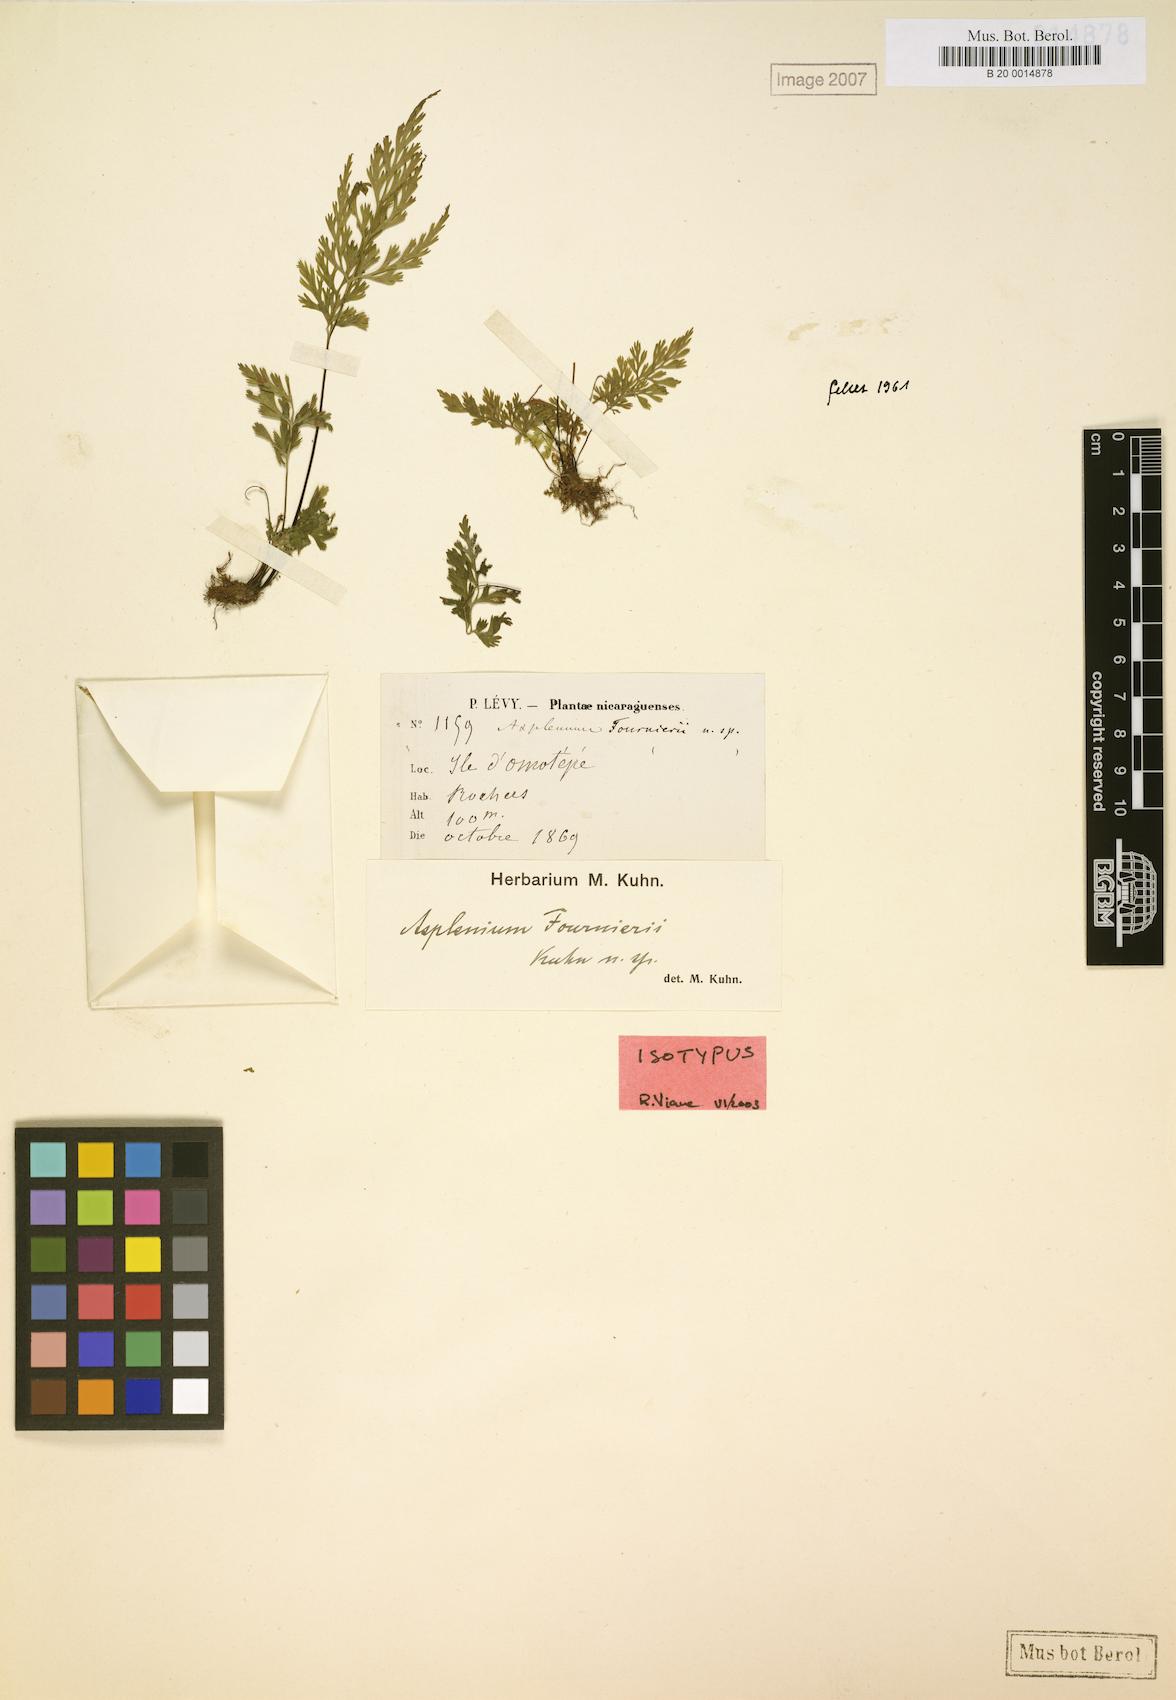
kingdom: Plantae
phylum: Tracheophyta
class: Polypodiopsida
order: Polypodiales
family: Aspleniaceae
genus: Asplenium
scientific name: Asplenium tenerrimum
